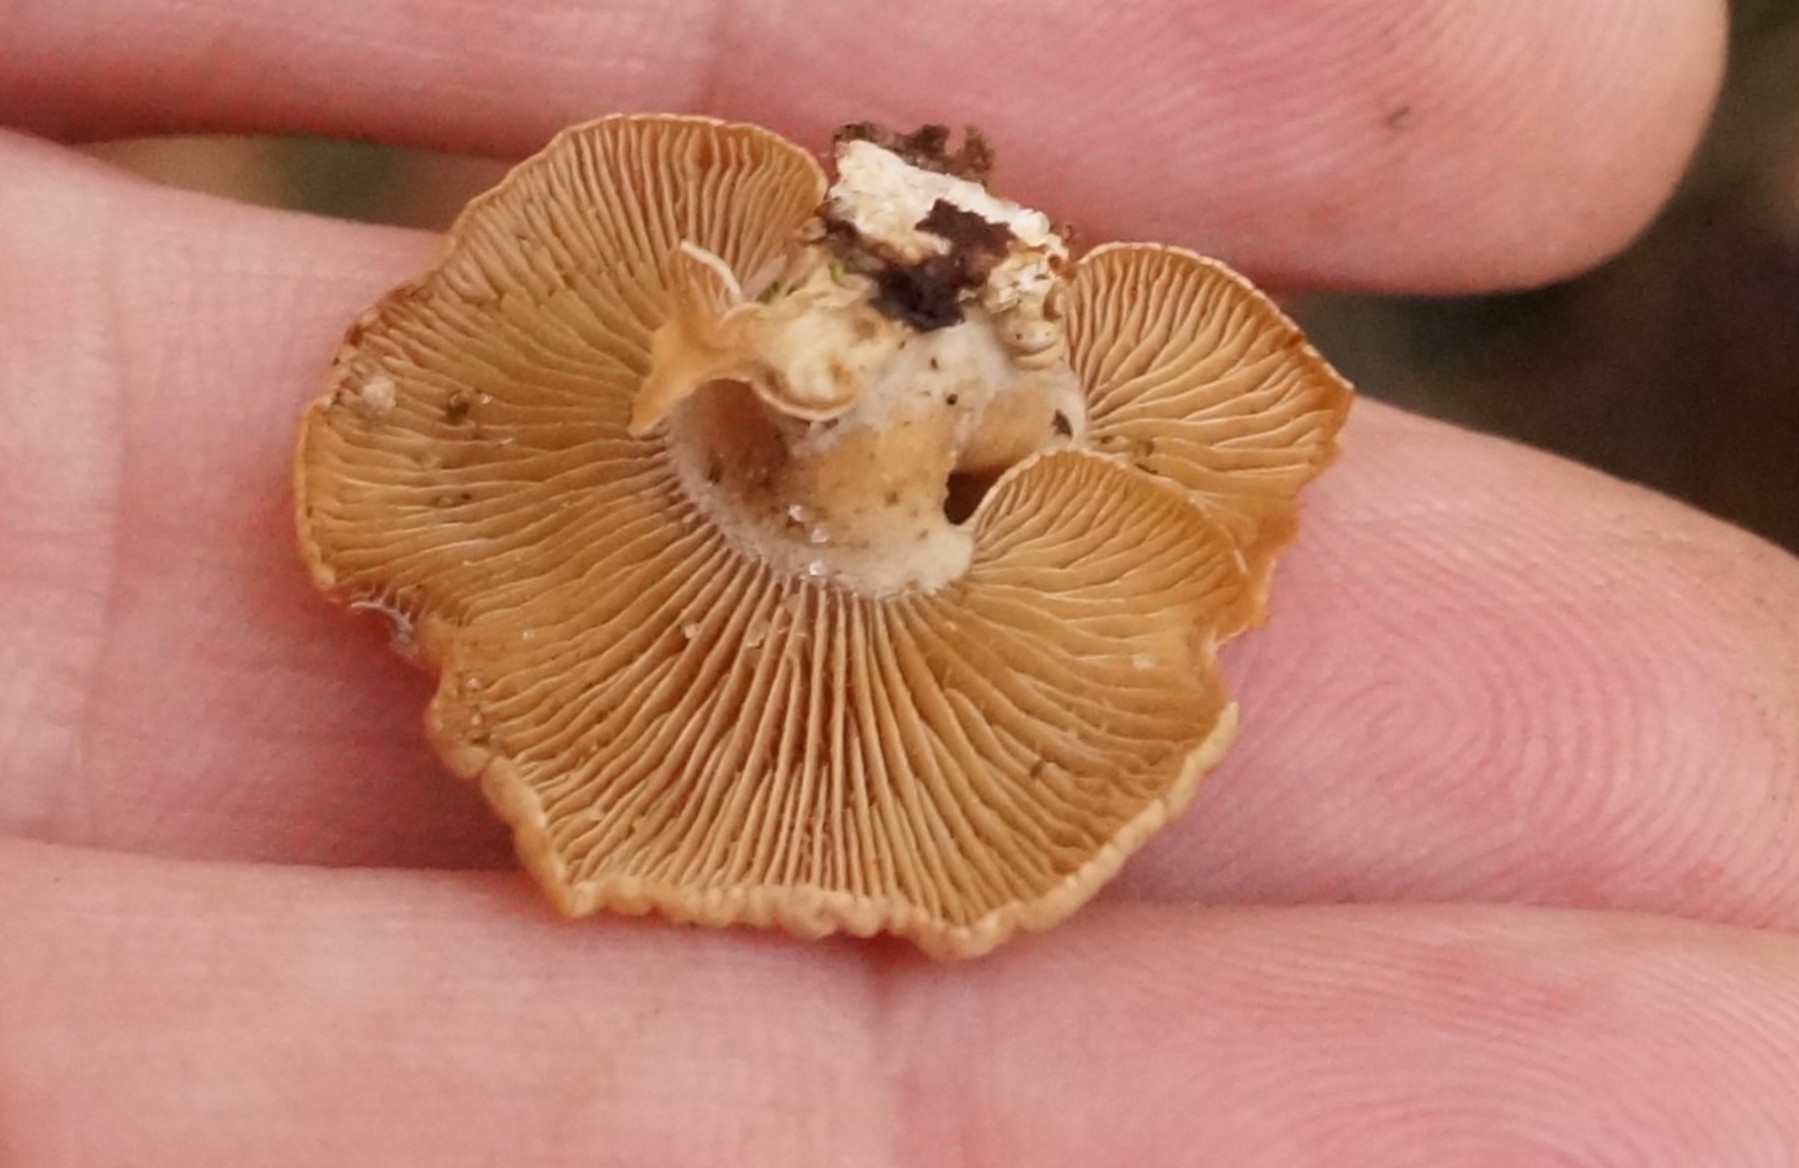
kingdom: Fungi
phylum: Basidiomycota
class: Agaricomycetes
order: Agaricales
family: Mycenaceae
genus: Panellus
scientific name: Panellus stipticus
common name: kliddet epaulethat
